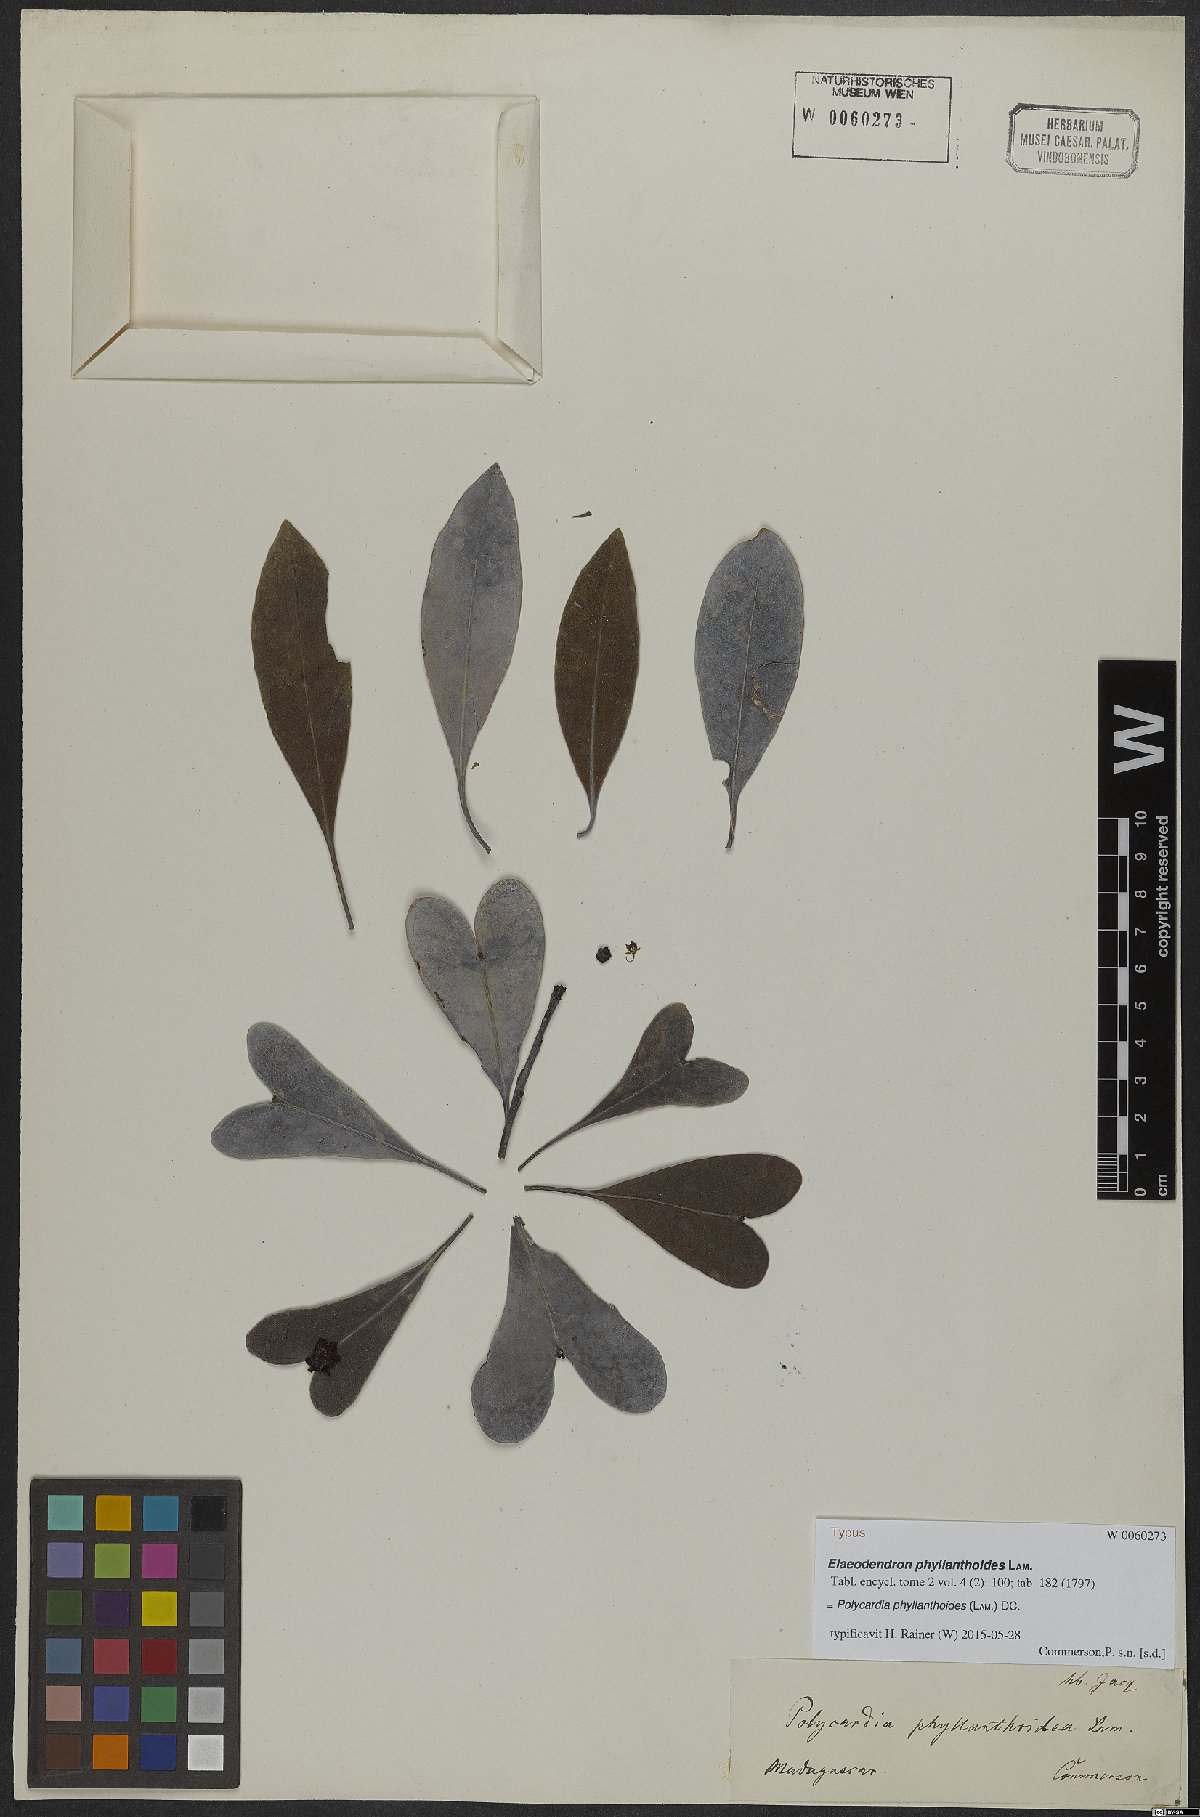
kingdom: Plantae
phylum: Tracheophyta
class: Magnoliopsida
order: Celastrales
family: Celastraceae
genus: Polycardia
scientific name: Polycardia phyllanthoides
